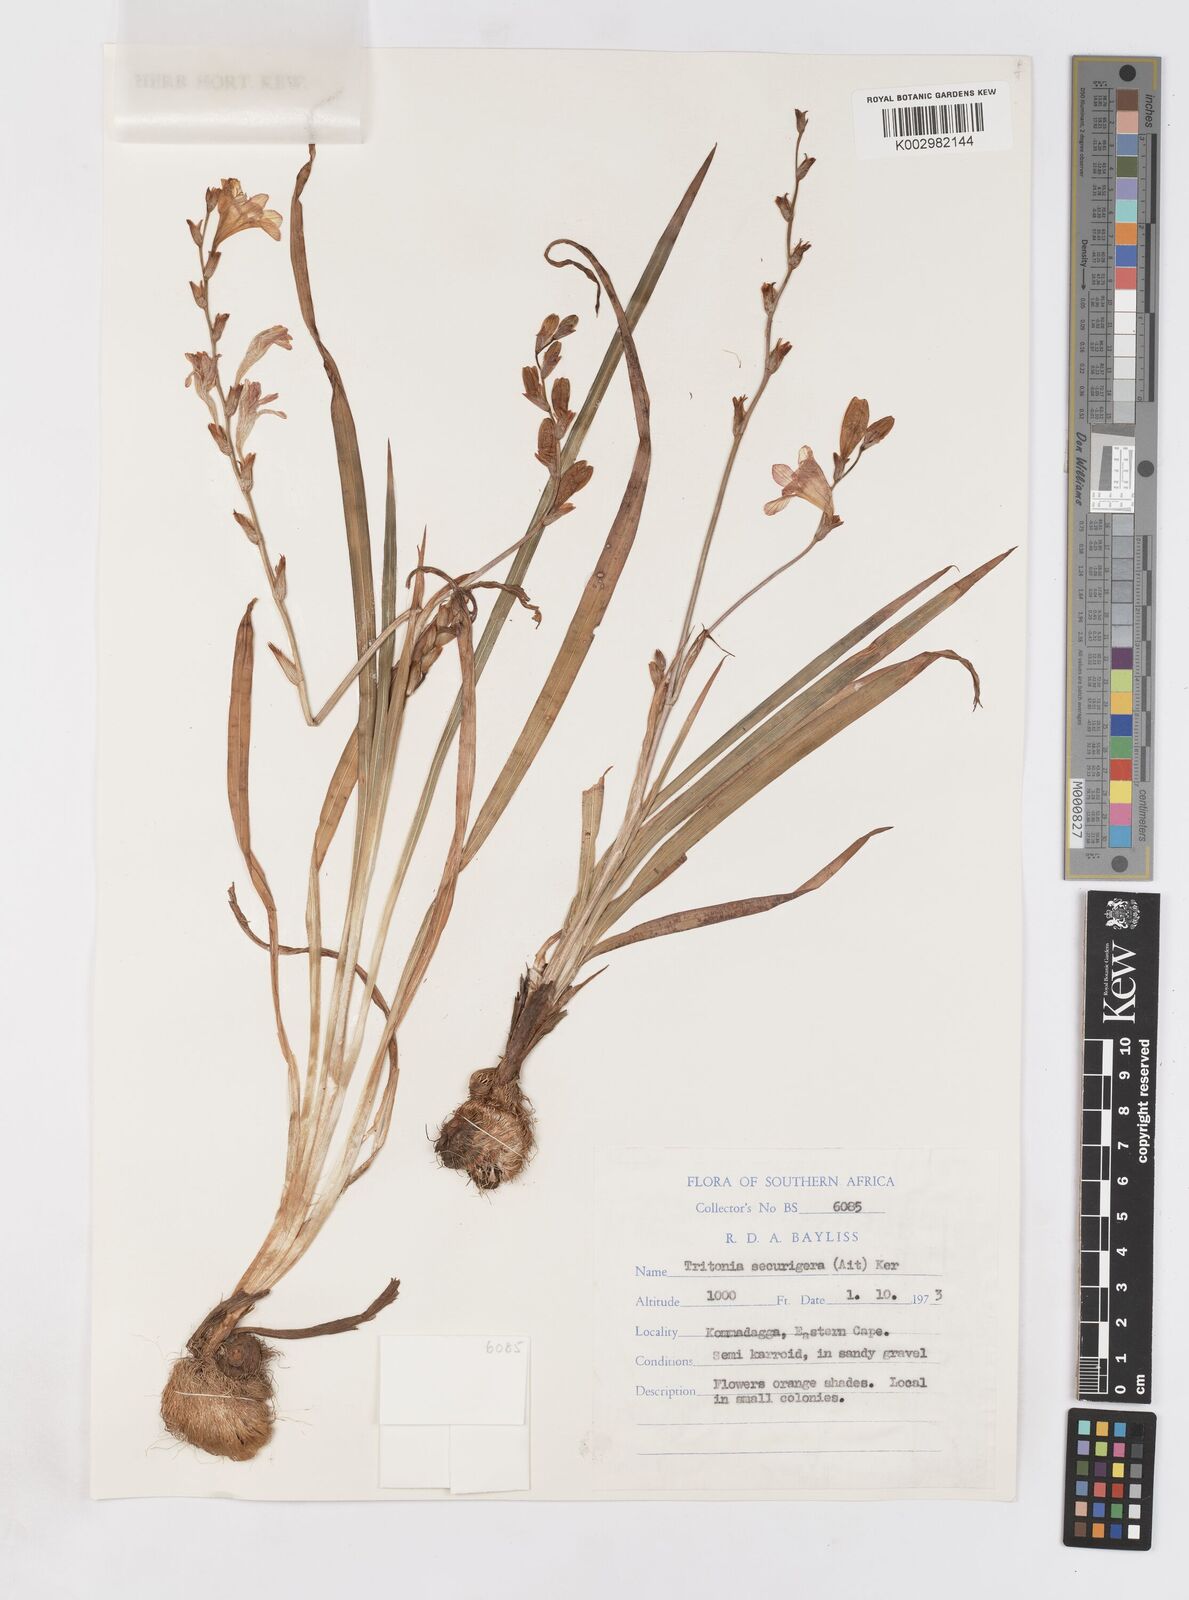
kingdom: Plantae
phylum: Tracheophyta
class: Liliopsida
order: Asparagales
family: Iridaceae
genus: Tritonia
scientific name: Tritonia securigera
